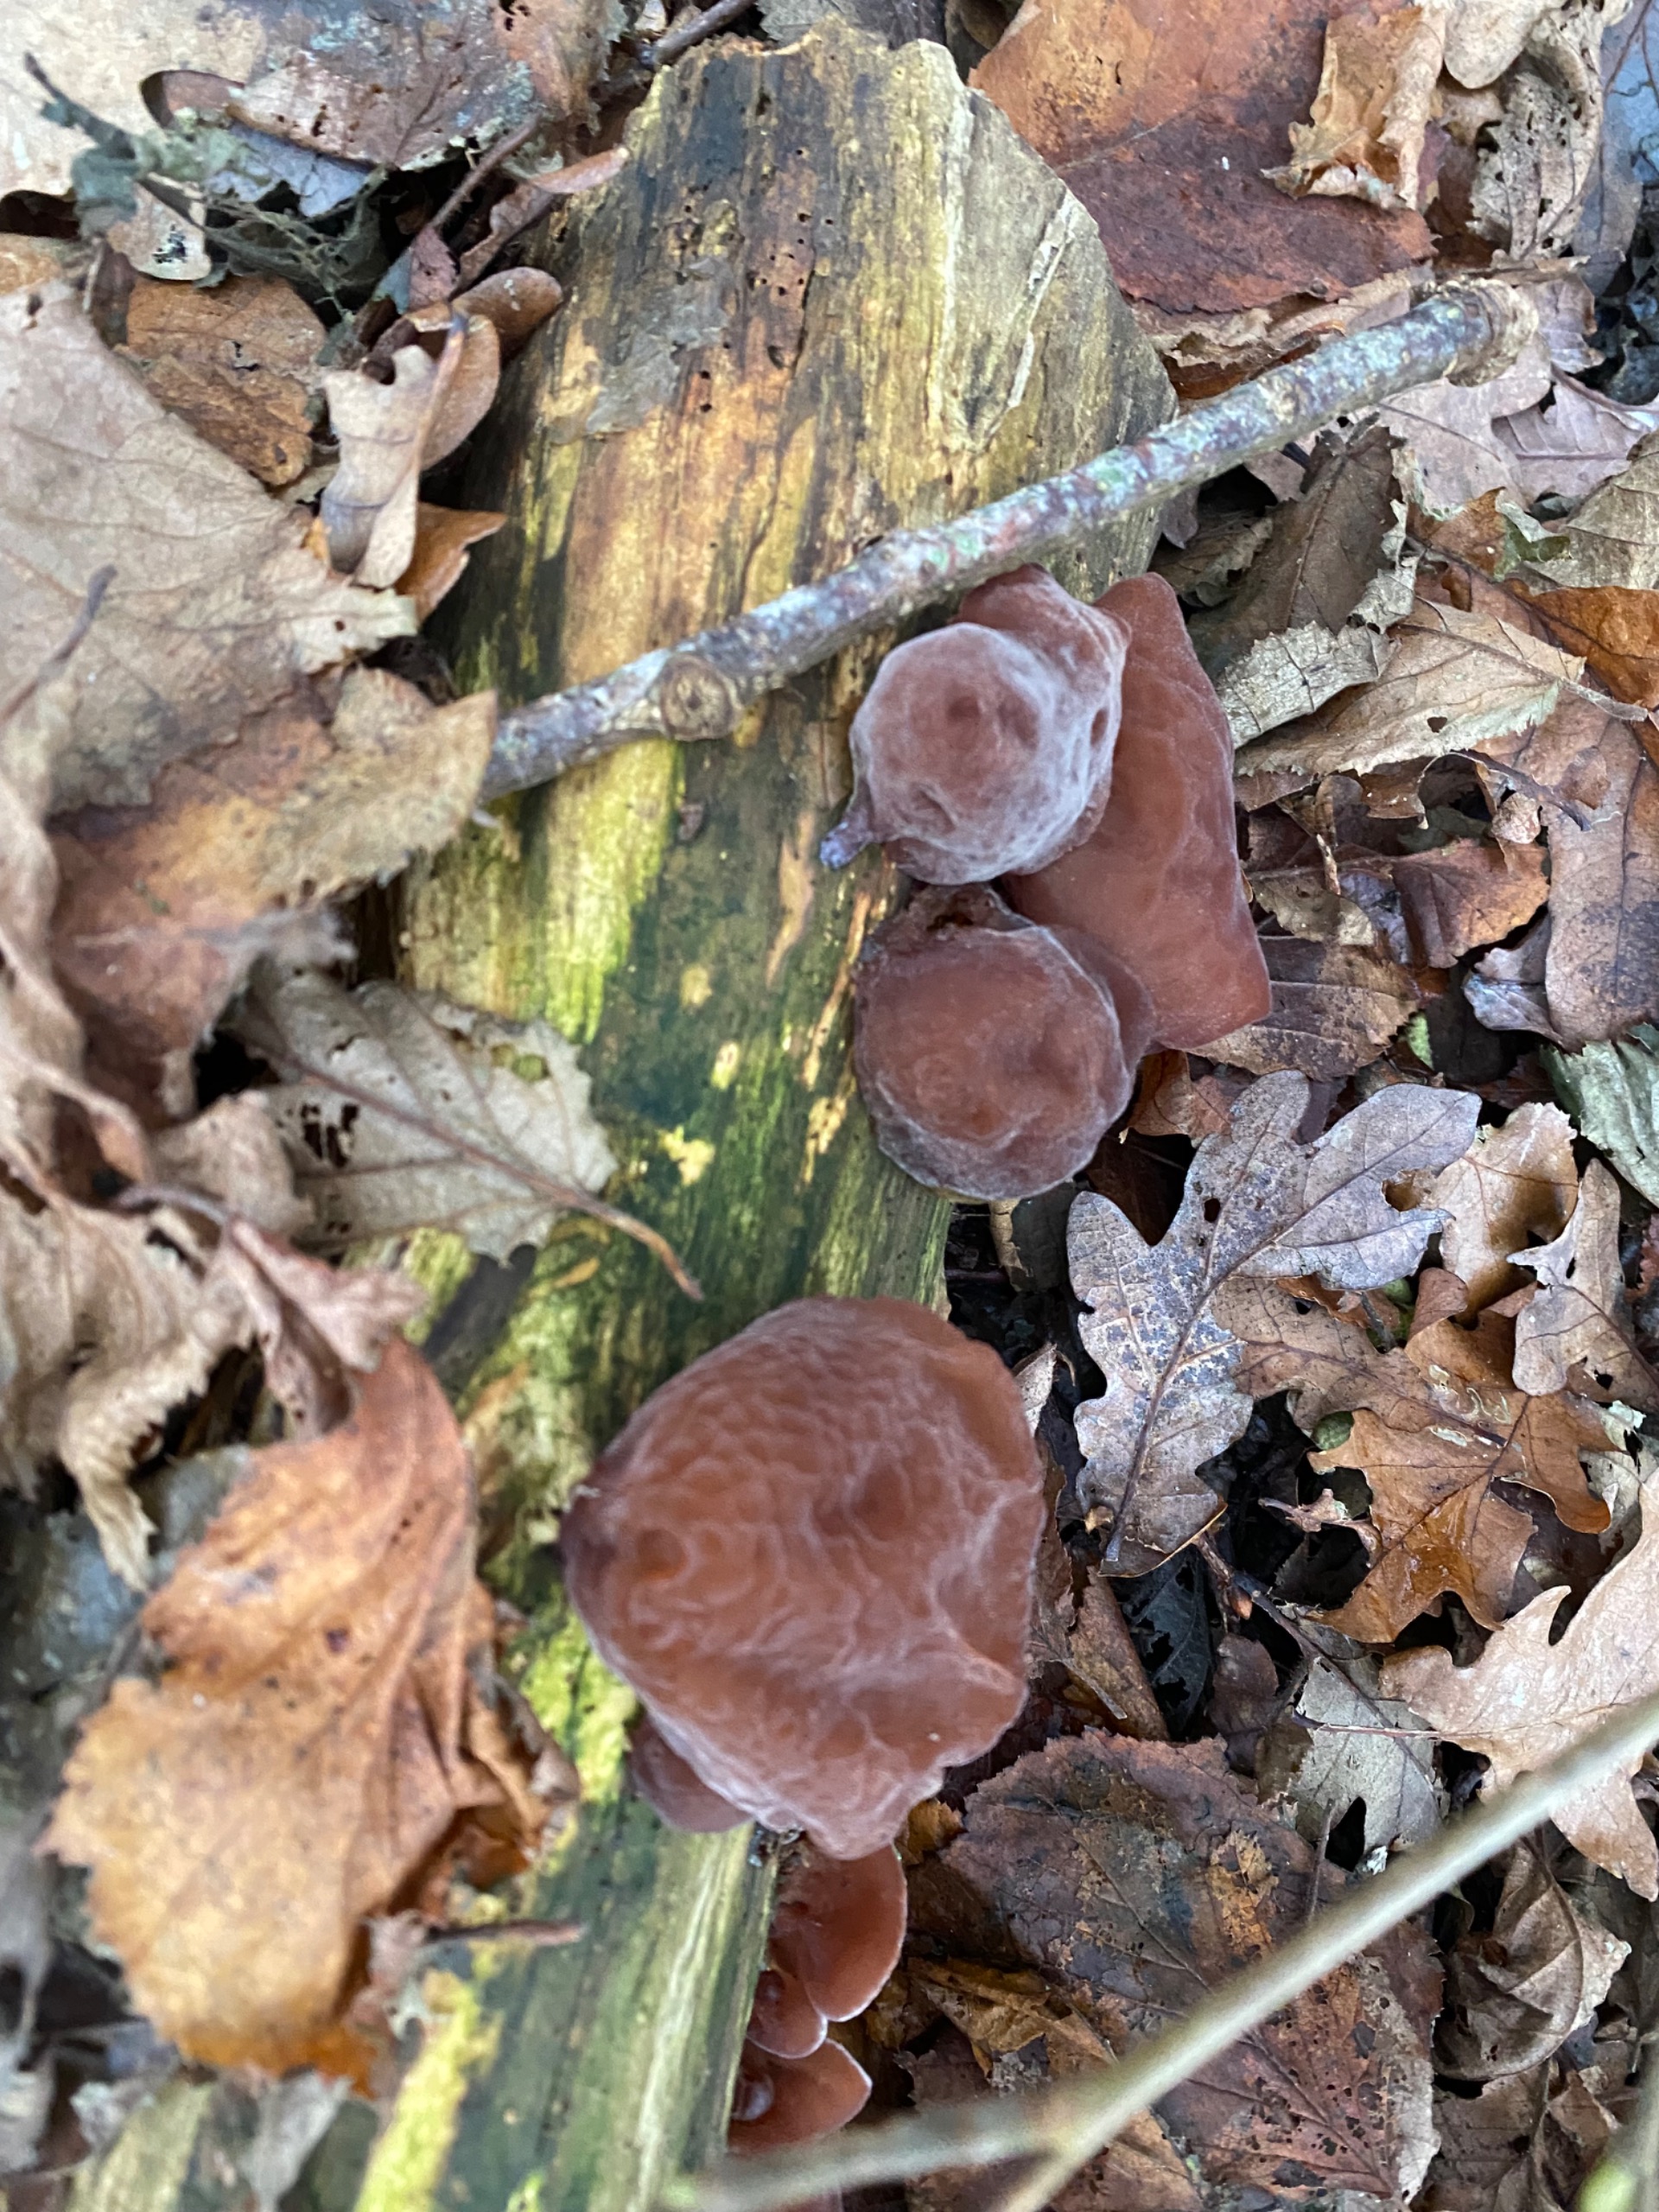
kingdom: Fungi
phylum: Basidiomycota
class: Agaricomycetes
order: Auriculariales
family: Auriculariaceae
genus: Auricularia
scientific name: Auricularia auricula-judae
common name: Almindelig judasøre
